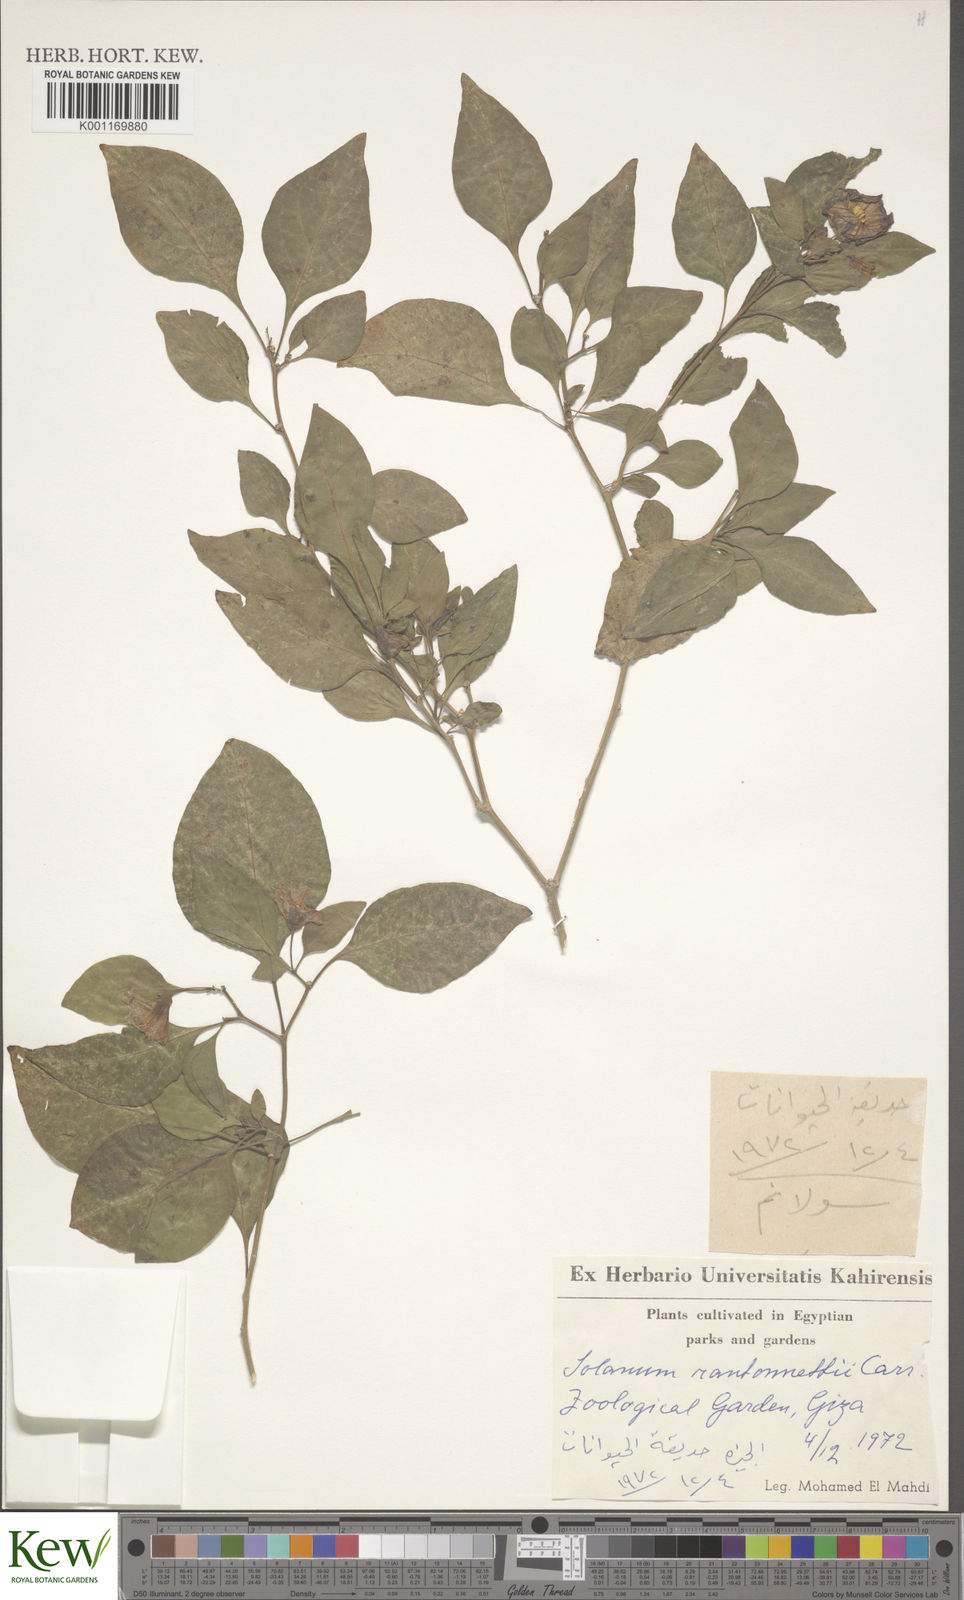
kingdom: Plantae
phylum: Tracheophyta
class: Magnoliopsida
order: Solanales
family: Solanaceae
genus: Solanum
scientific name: Solanum
